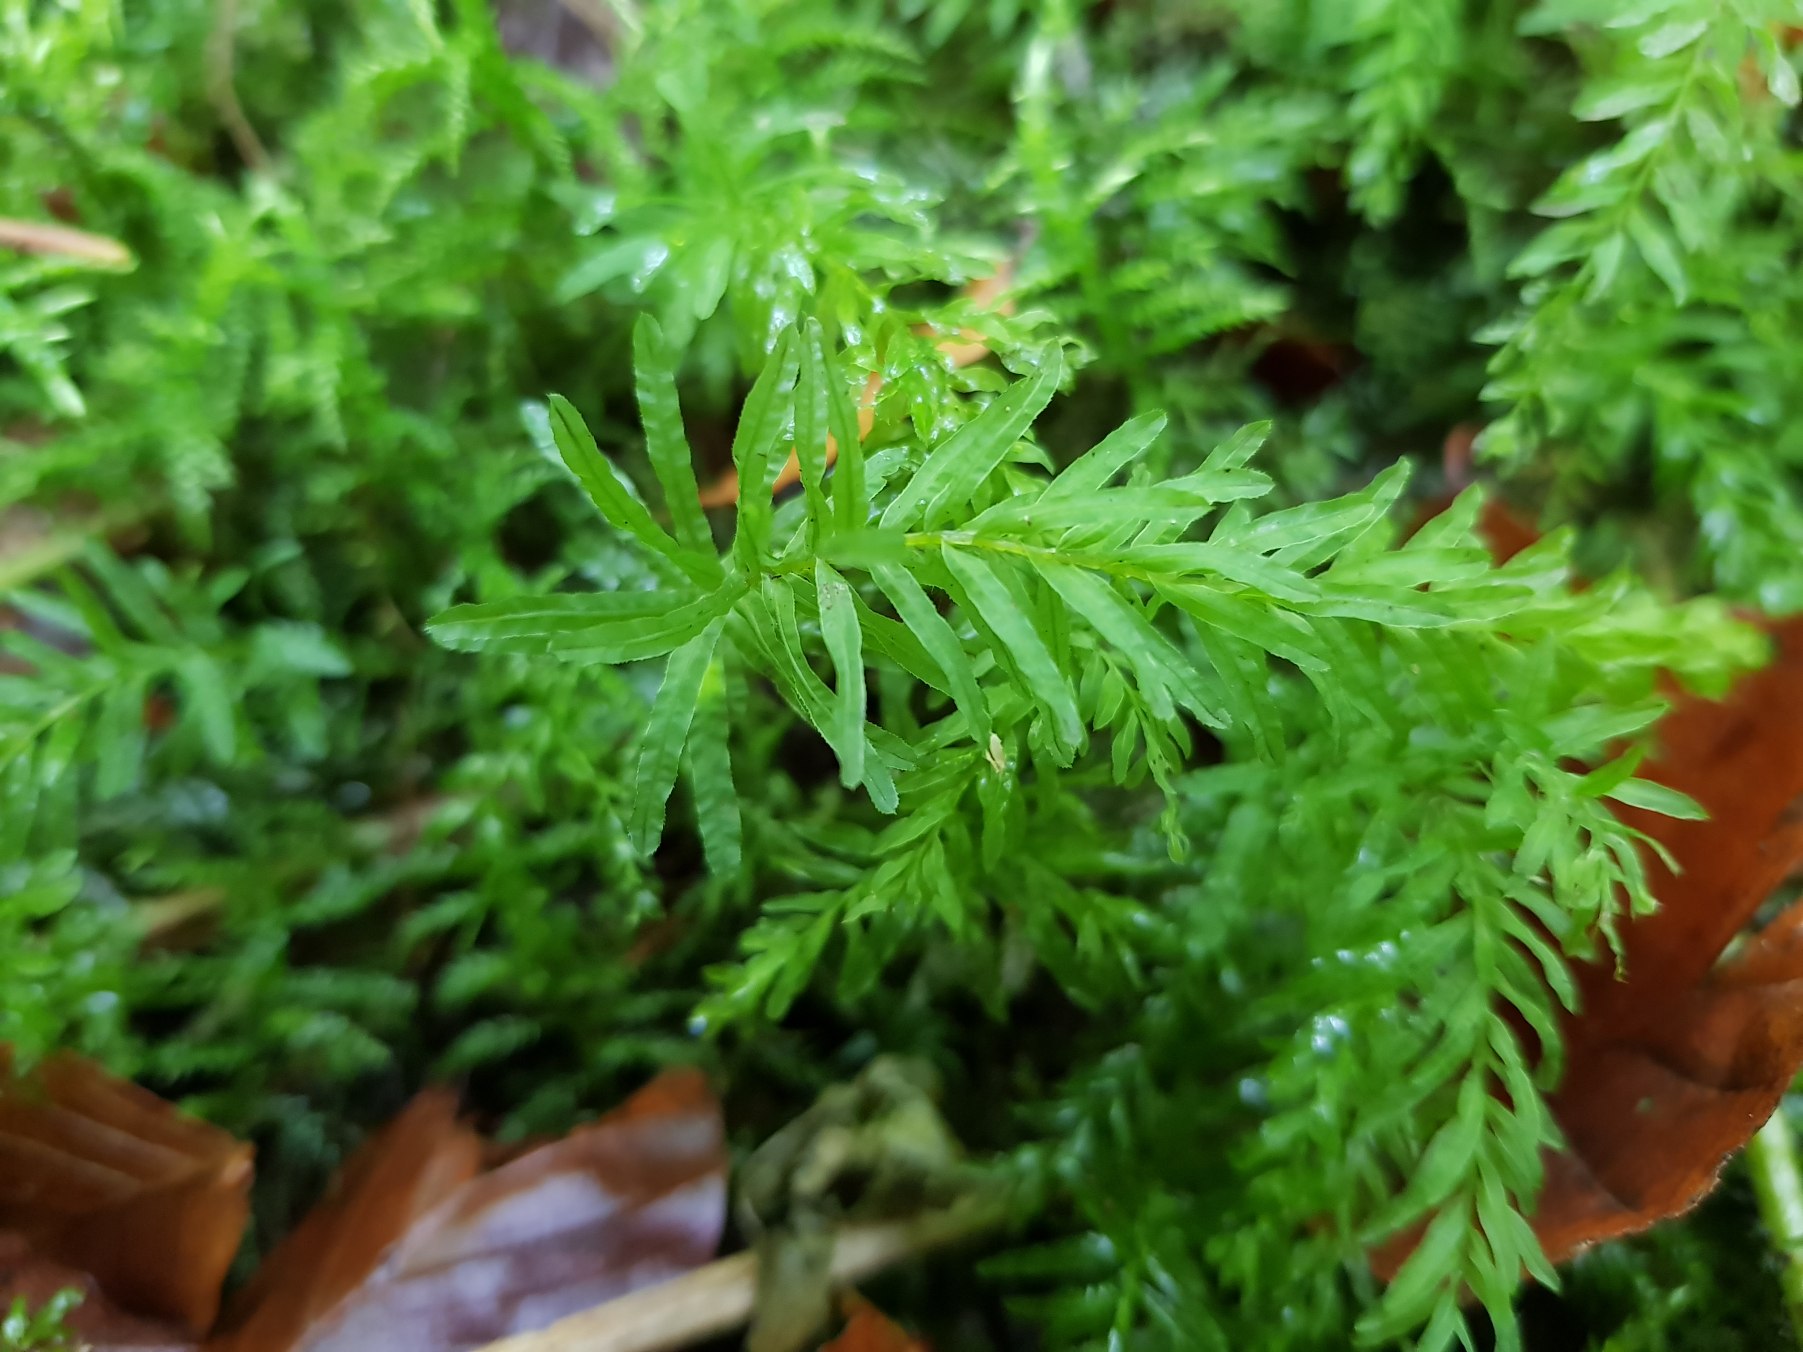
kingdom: Plantae
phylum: Bryophyta
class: Bryopsida
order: Bryales
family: Mniaceae
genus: Plagiomnium
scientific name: Plagiomnium undulatum
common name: Bølget krybstjerne
